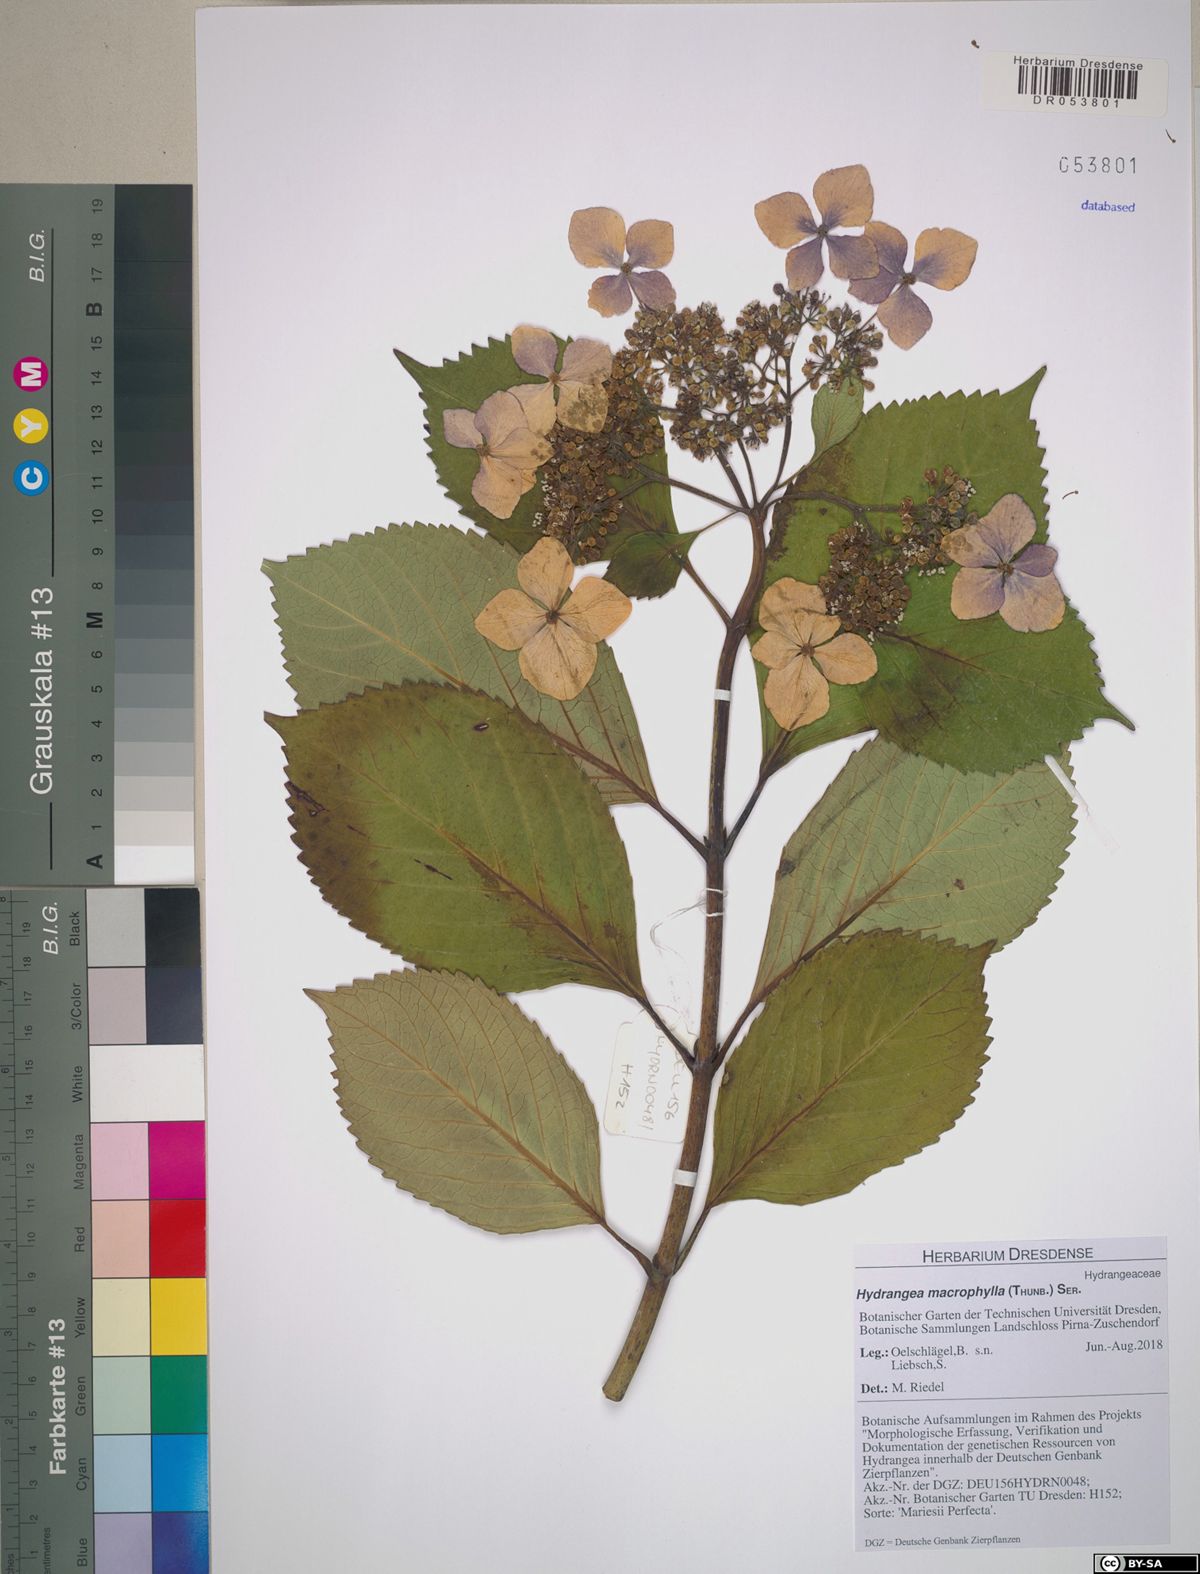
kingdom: Plantae
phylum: Tracheophyta
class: Magnoliopsida
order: Cornales
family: Hydrangeaceae
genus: Hydrangea
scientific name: Hydrangea macrophylla
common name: Hydrangea
